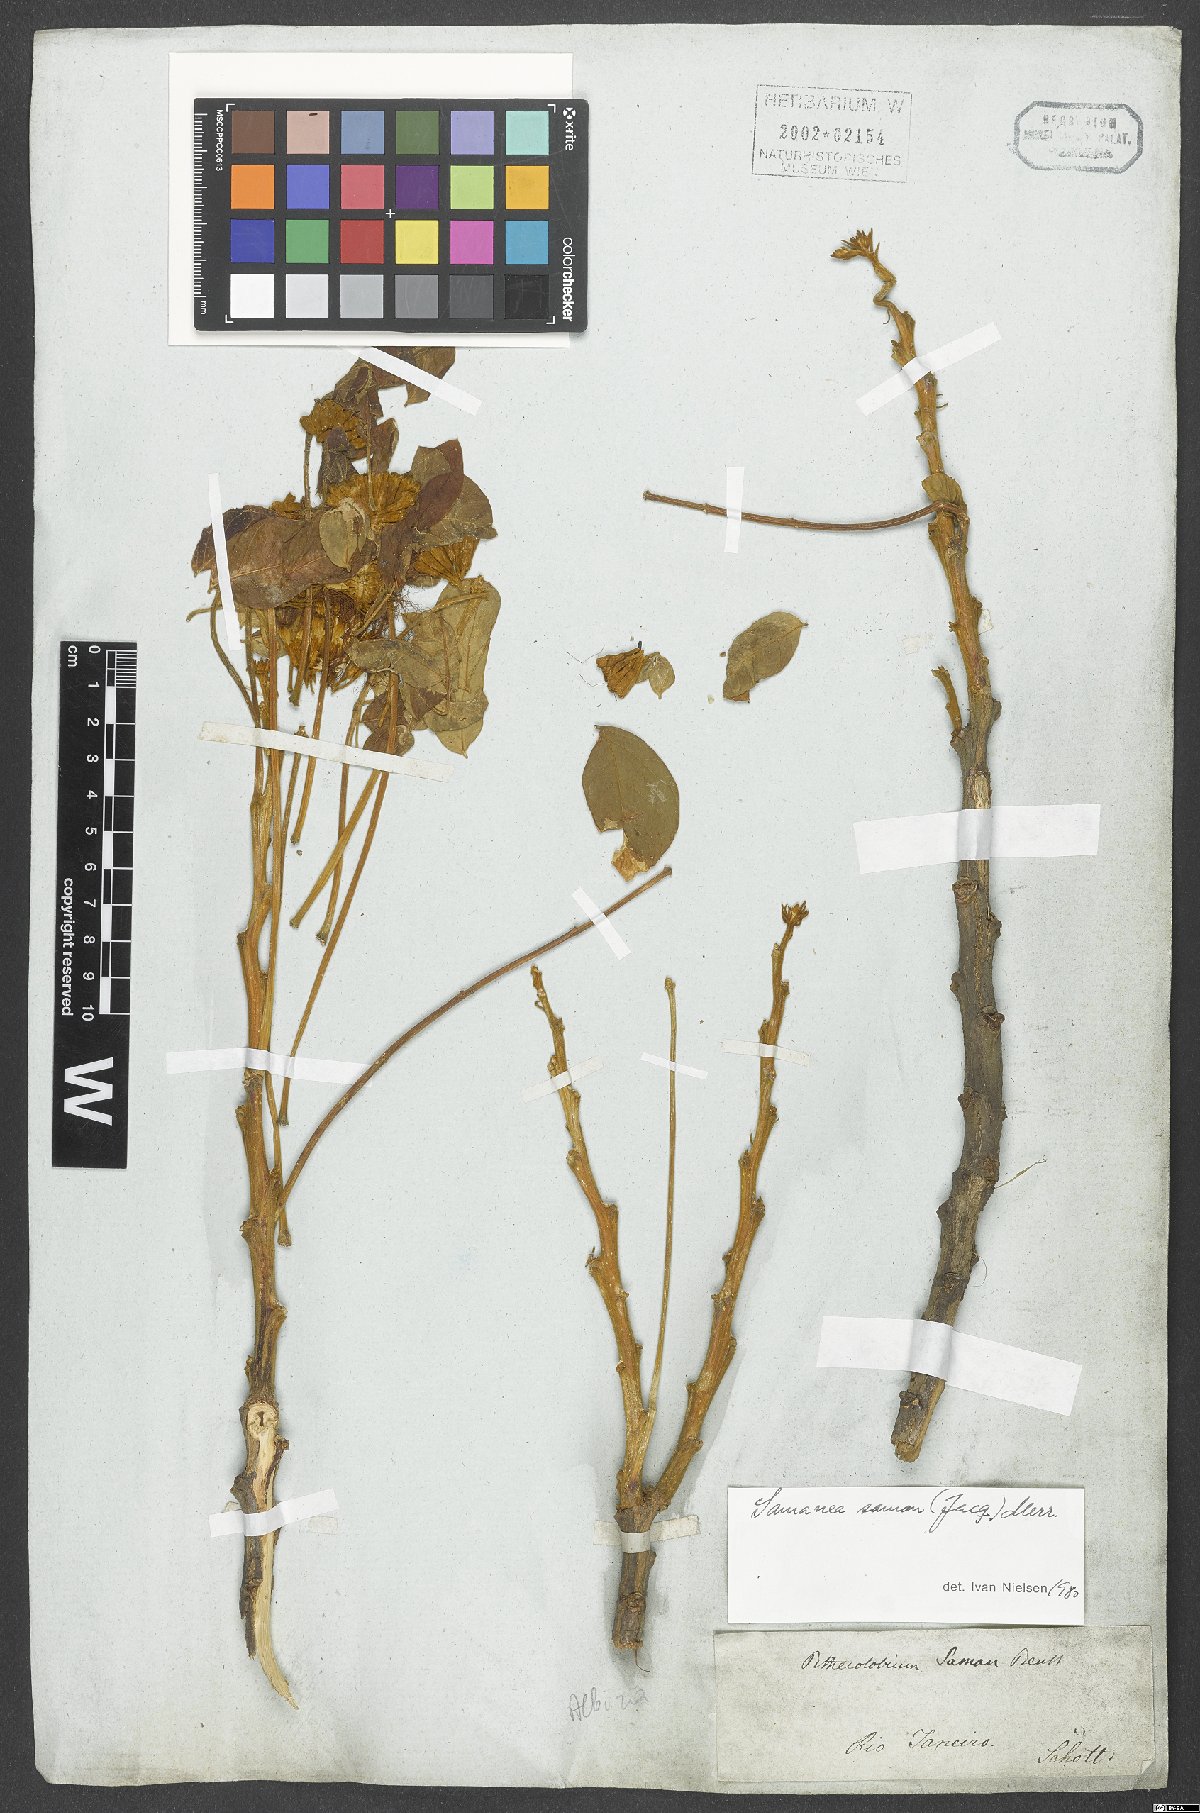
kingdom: Plantae
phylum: Tracheophyta
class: Magnoliopsida
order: Fabales
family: Fabaceae
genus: Samanea
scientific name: Samanea saman
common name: Raintree
